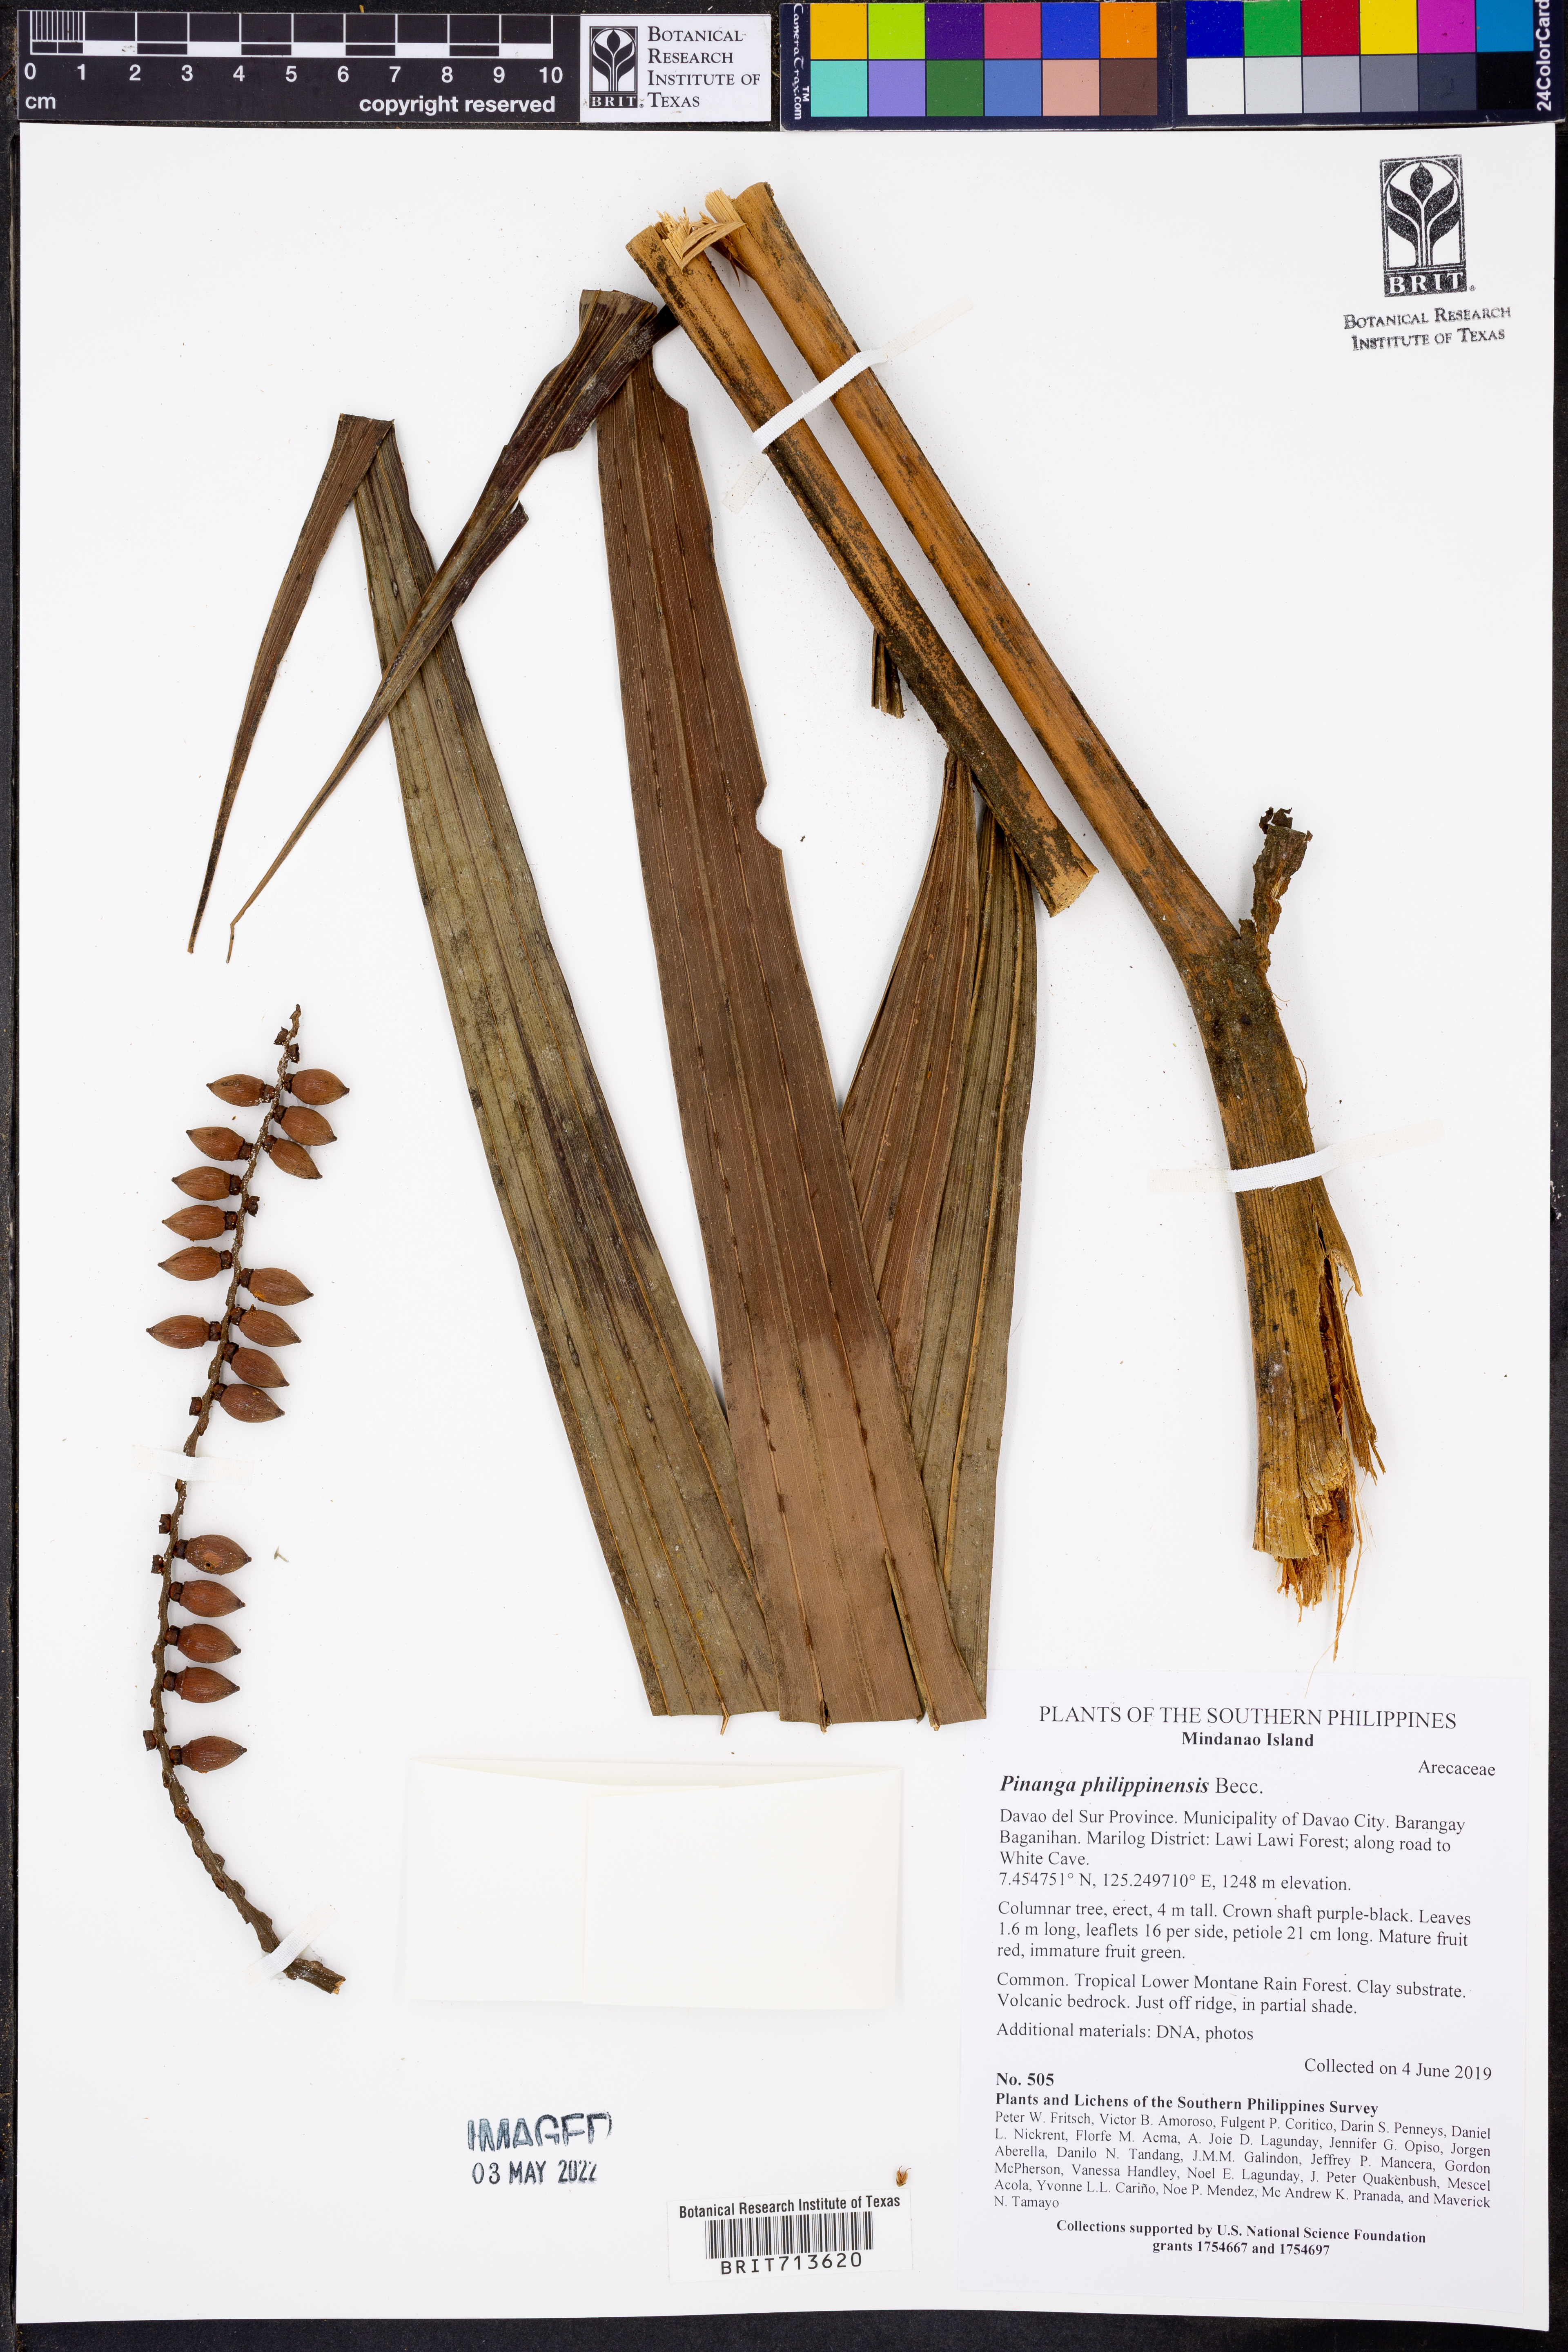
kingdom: Plantae
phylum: Tracheophyta
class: Liliopsida
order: Arecales
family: Arecaceae
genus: Pinanga
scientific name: Pinanga philippinensis
